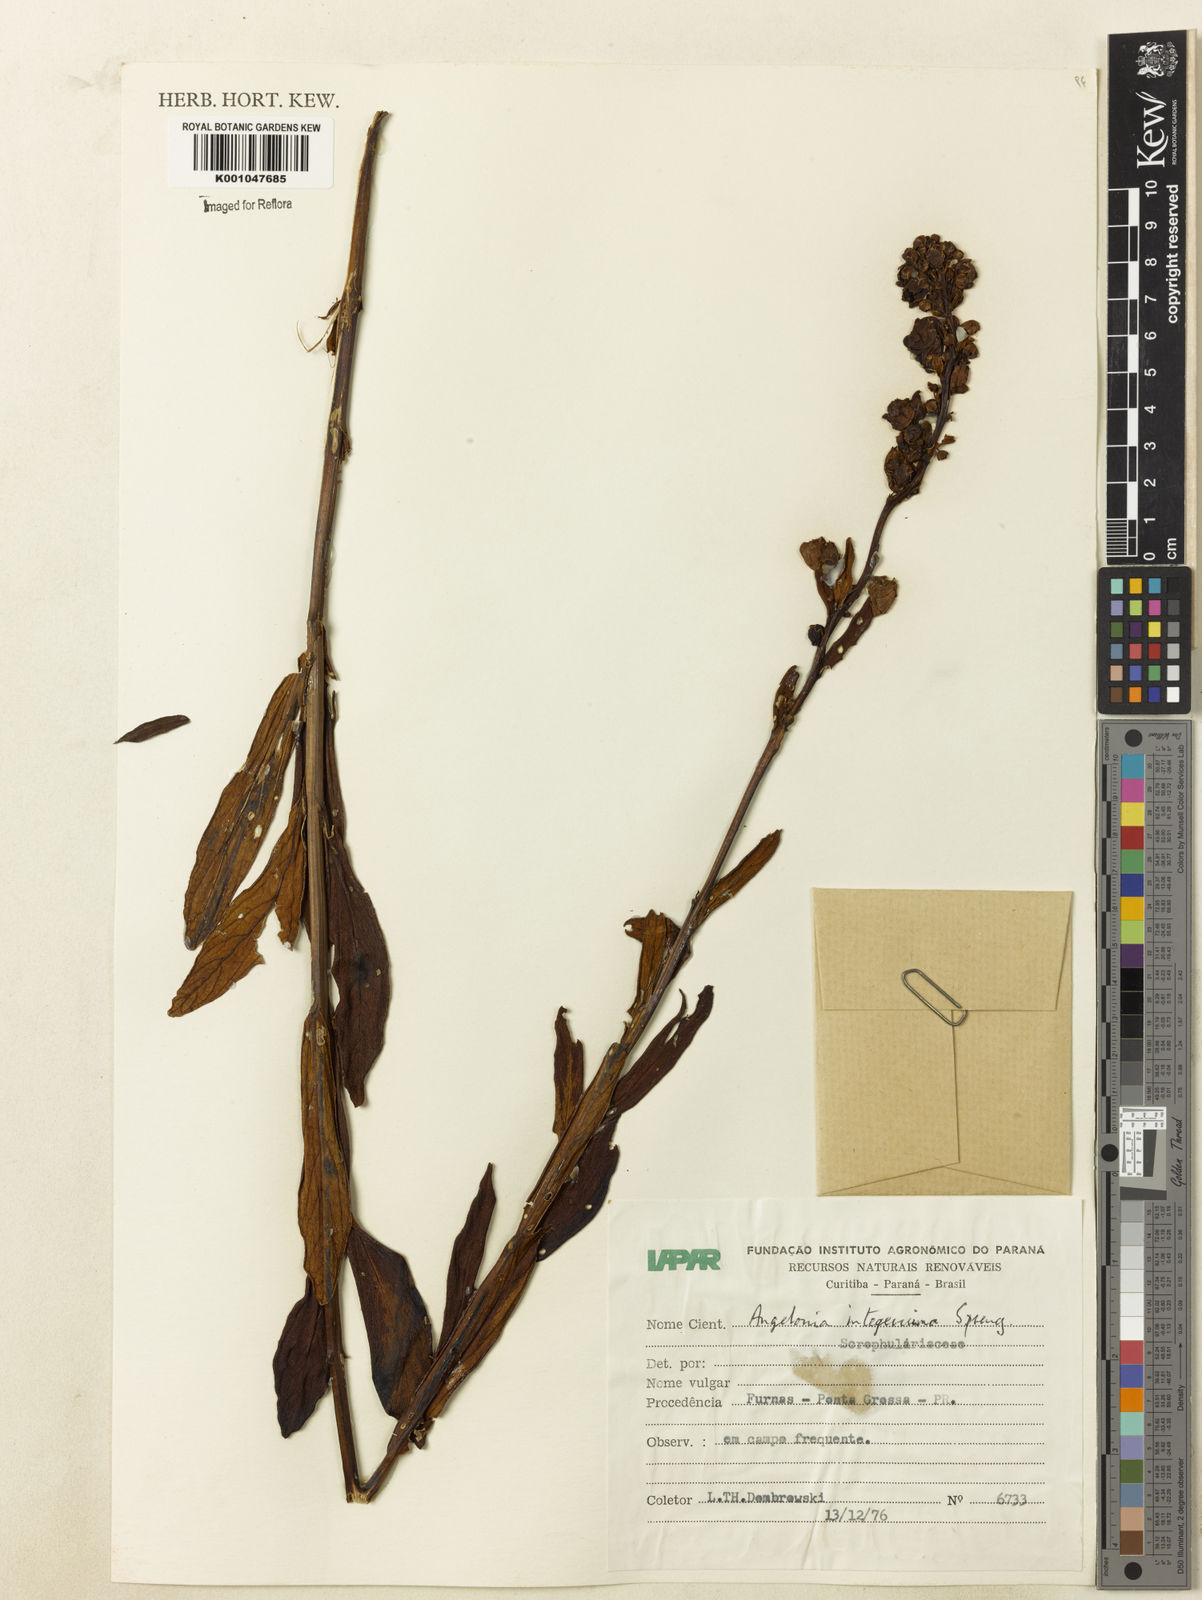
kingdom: Plantae
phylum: Tracheophyta
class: Magnoliopsida
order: Lamiales
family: Plantaginaceae
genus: Angelonia
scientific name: Angelonia integerrima
